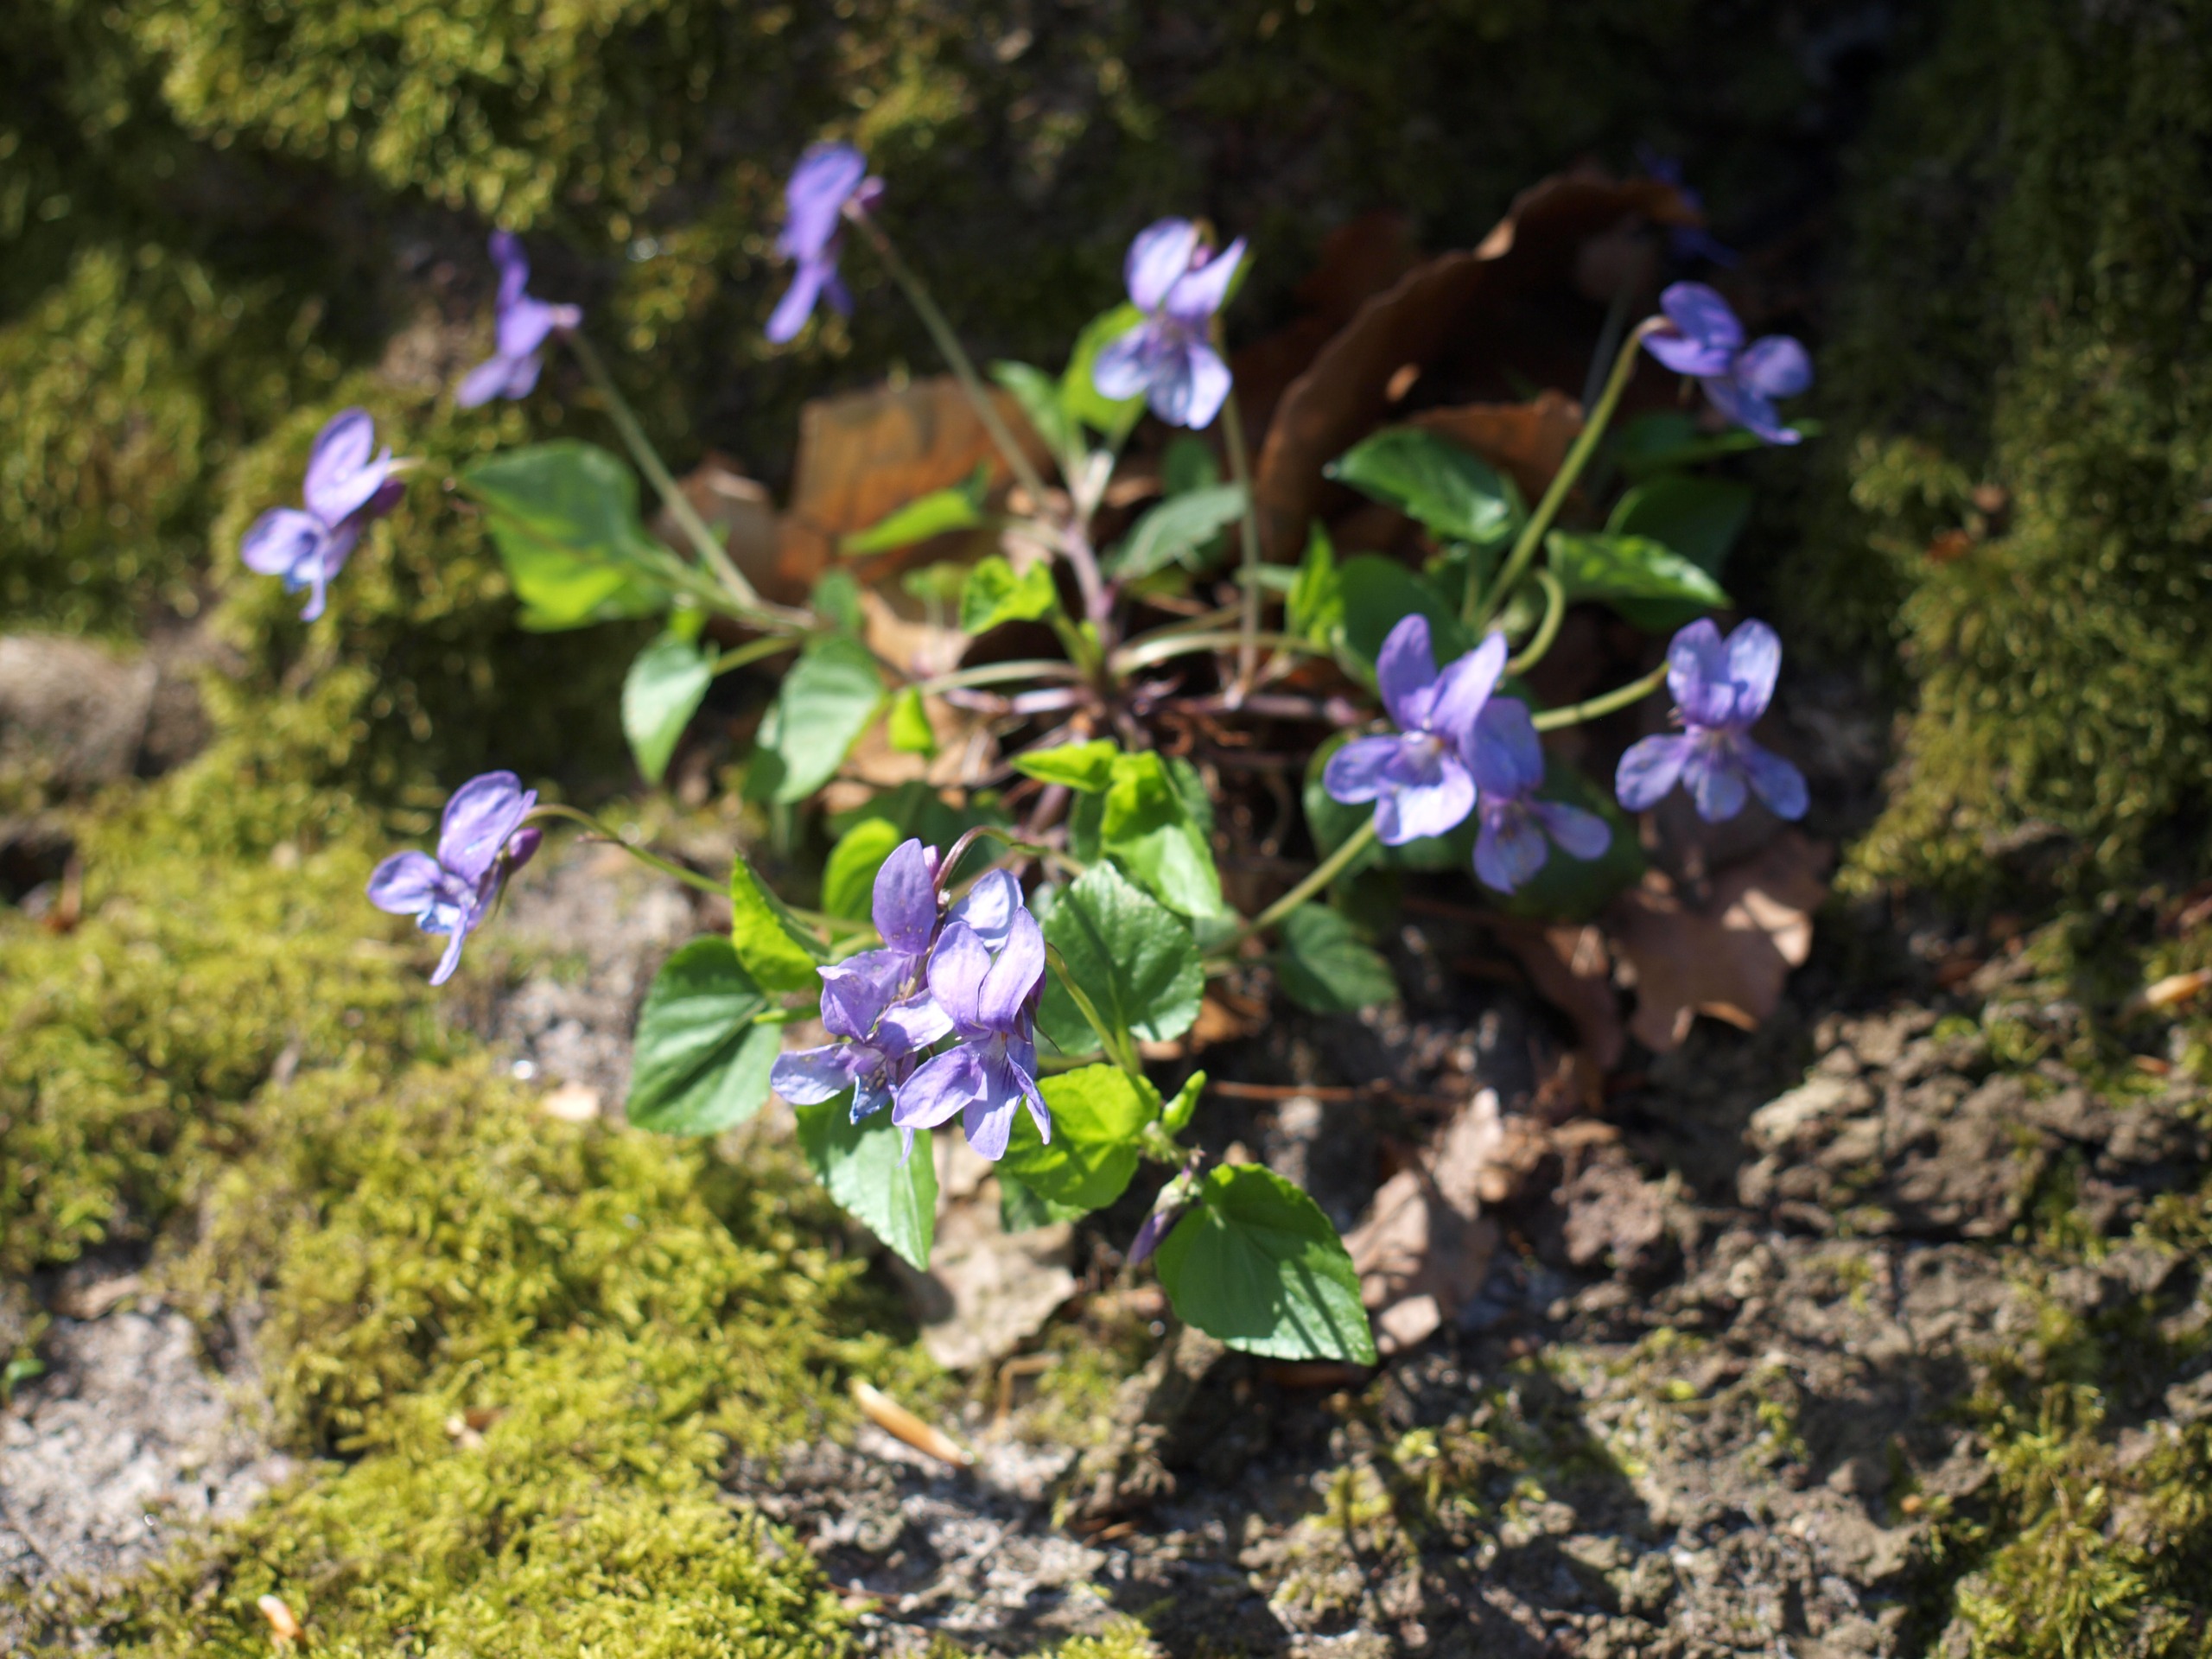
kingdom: Plantae
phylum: Tracheophyta
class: Magnoliopsida
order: Malpighiales
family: Violaceae
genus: Viola
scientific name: Viola reichenbachiana
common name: Skov-viol
